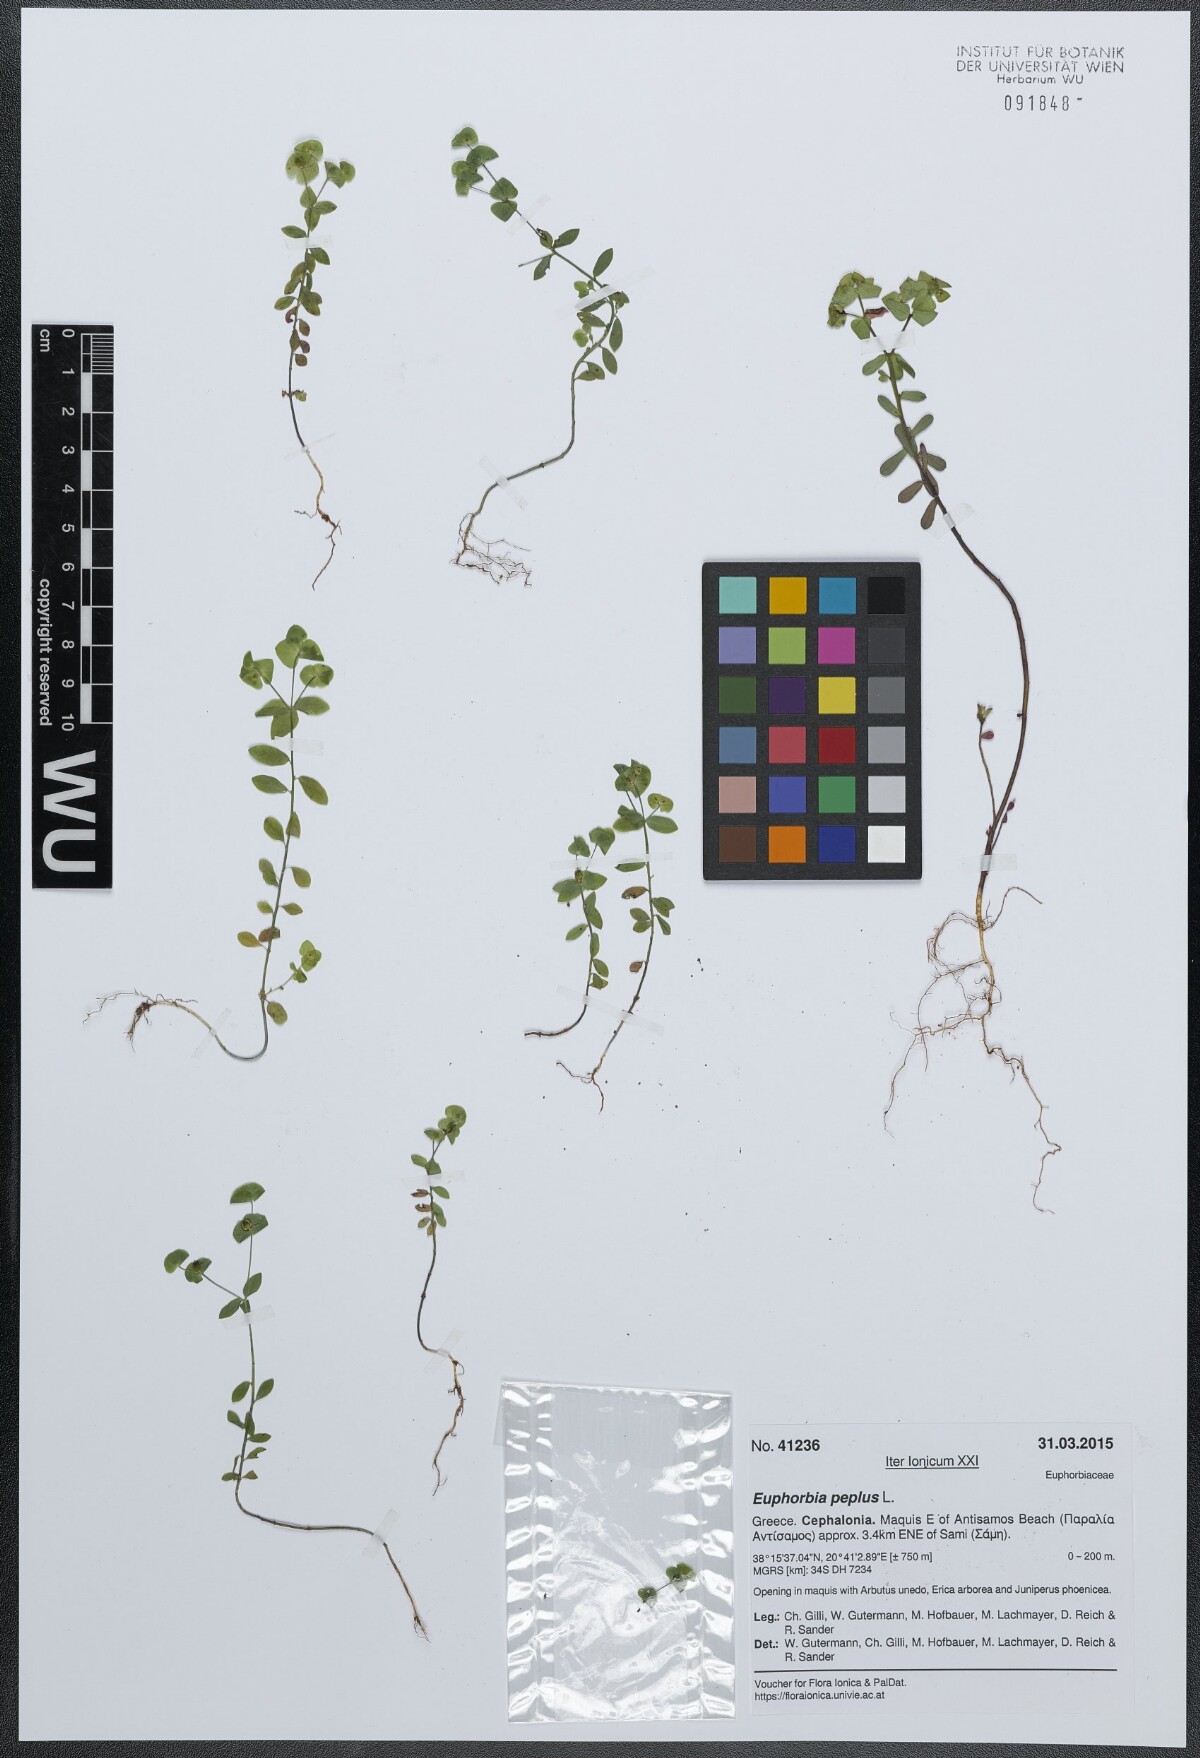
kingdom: Plantae
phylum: Tracheophyta
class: Magnoliopsida
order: Malpighiales
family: Euphorbiaceae
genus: Euphorbia
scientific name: Euphorbia peplus
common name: Petty spurge
